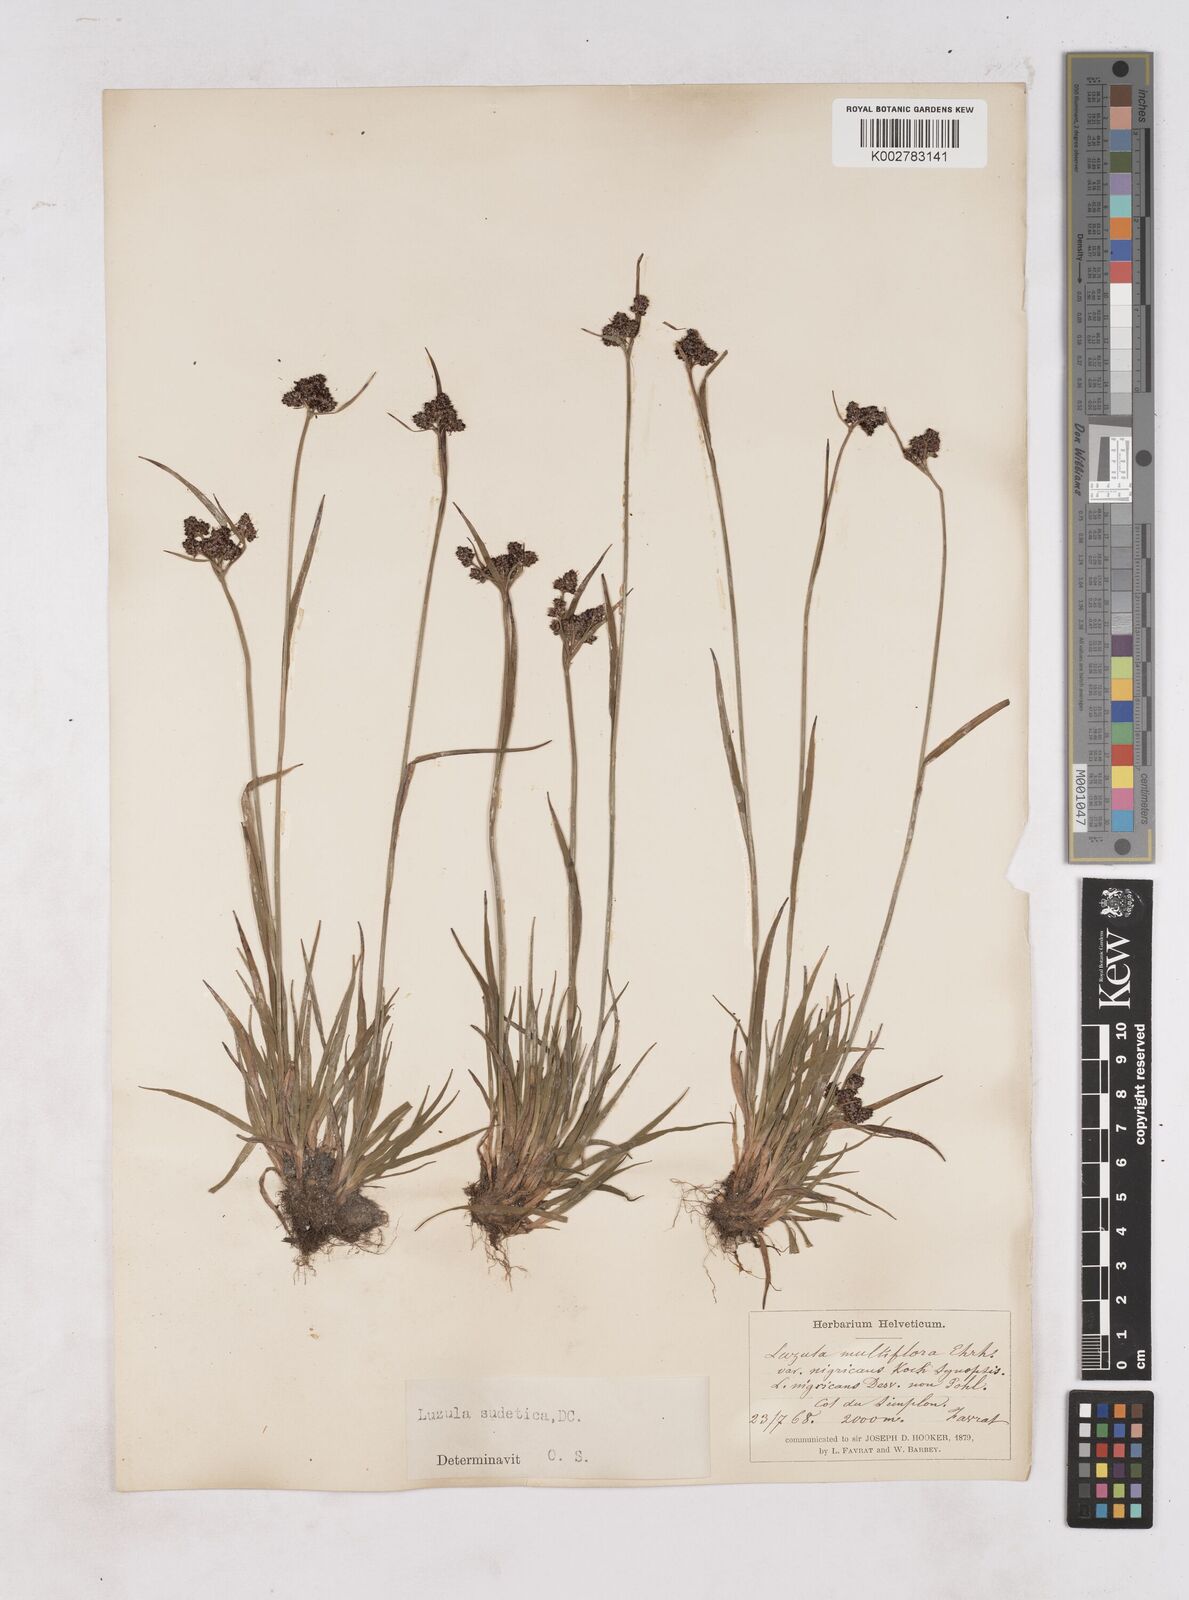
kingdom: Plantae
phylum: Tracheophyta
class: Liliopsida
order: Poales
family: Juncaceae
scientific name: Juncaceae
